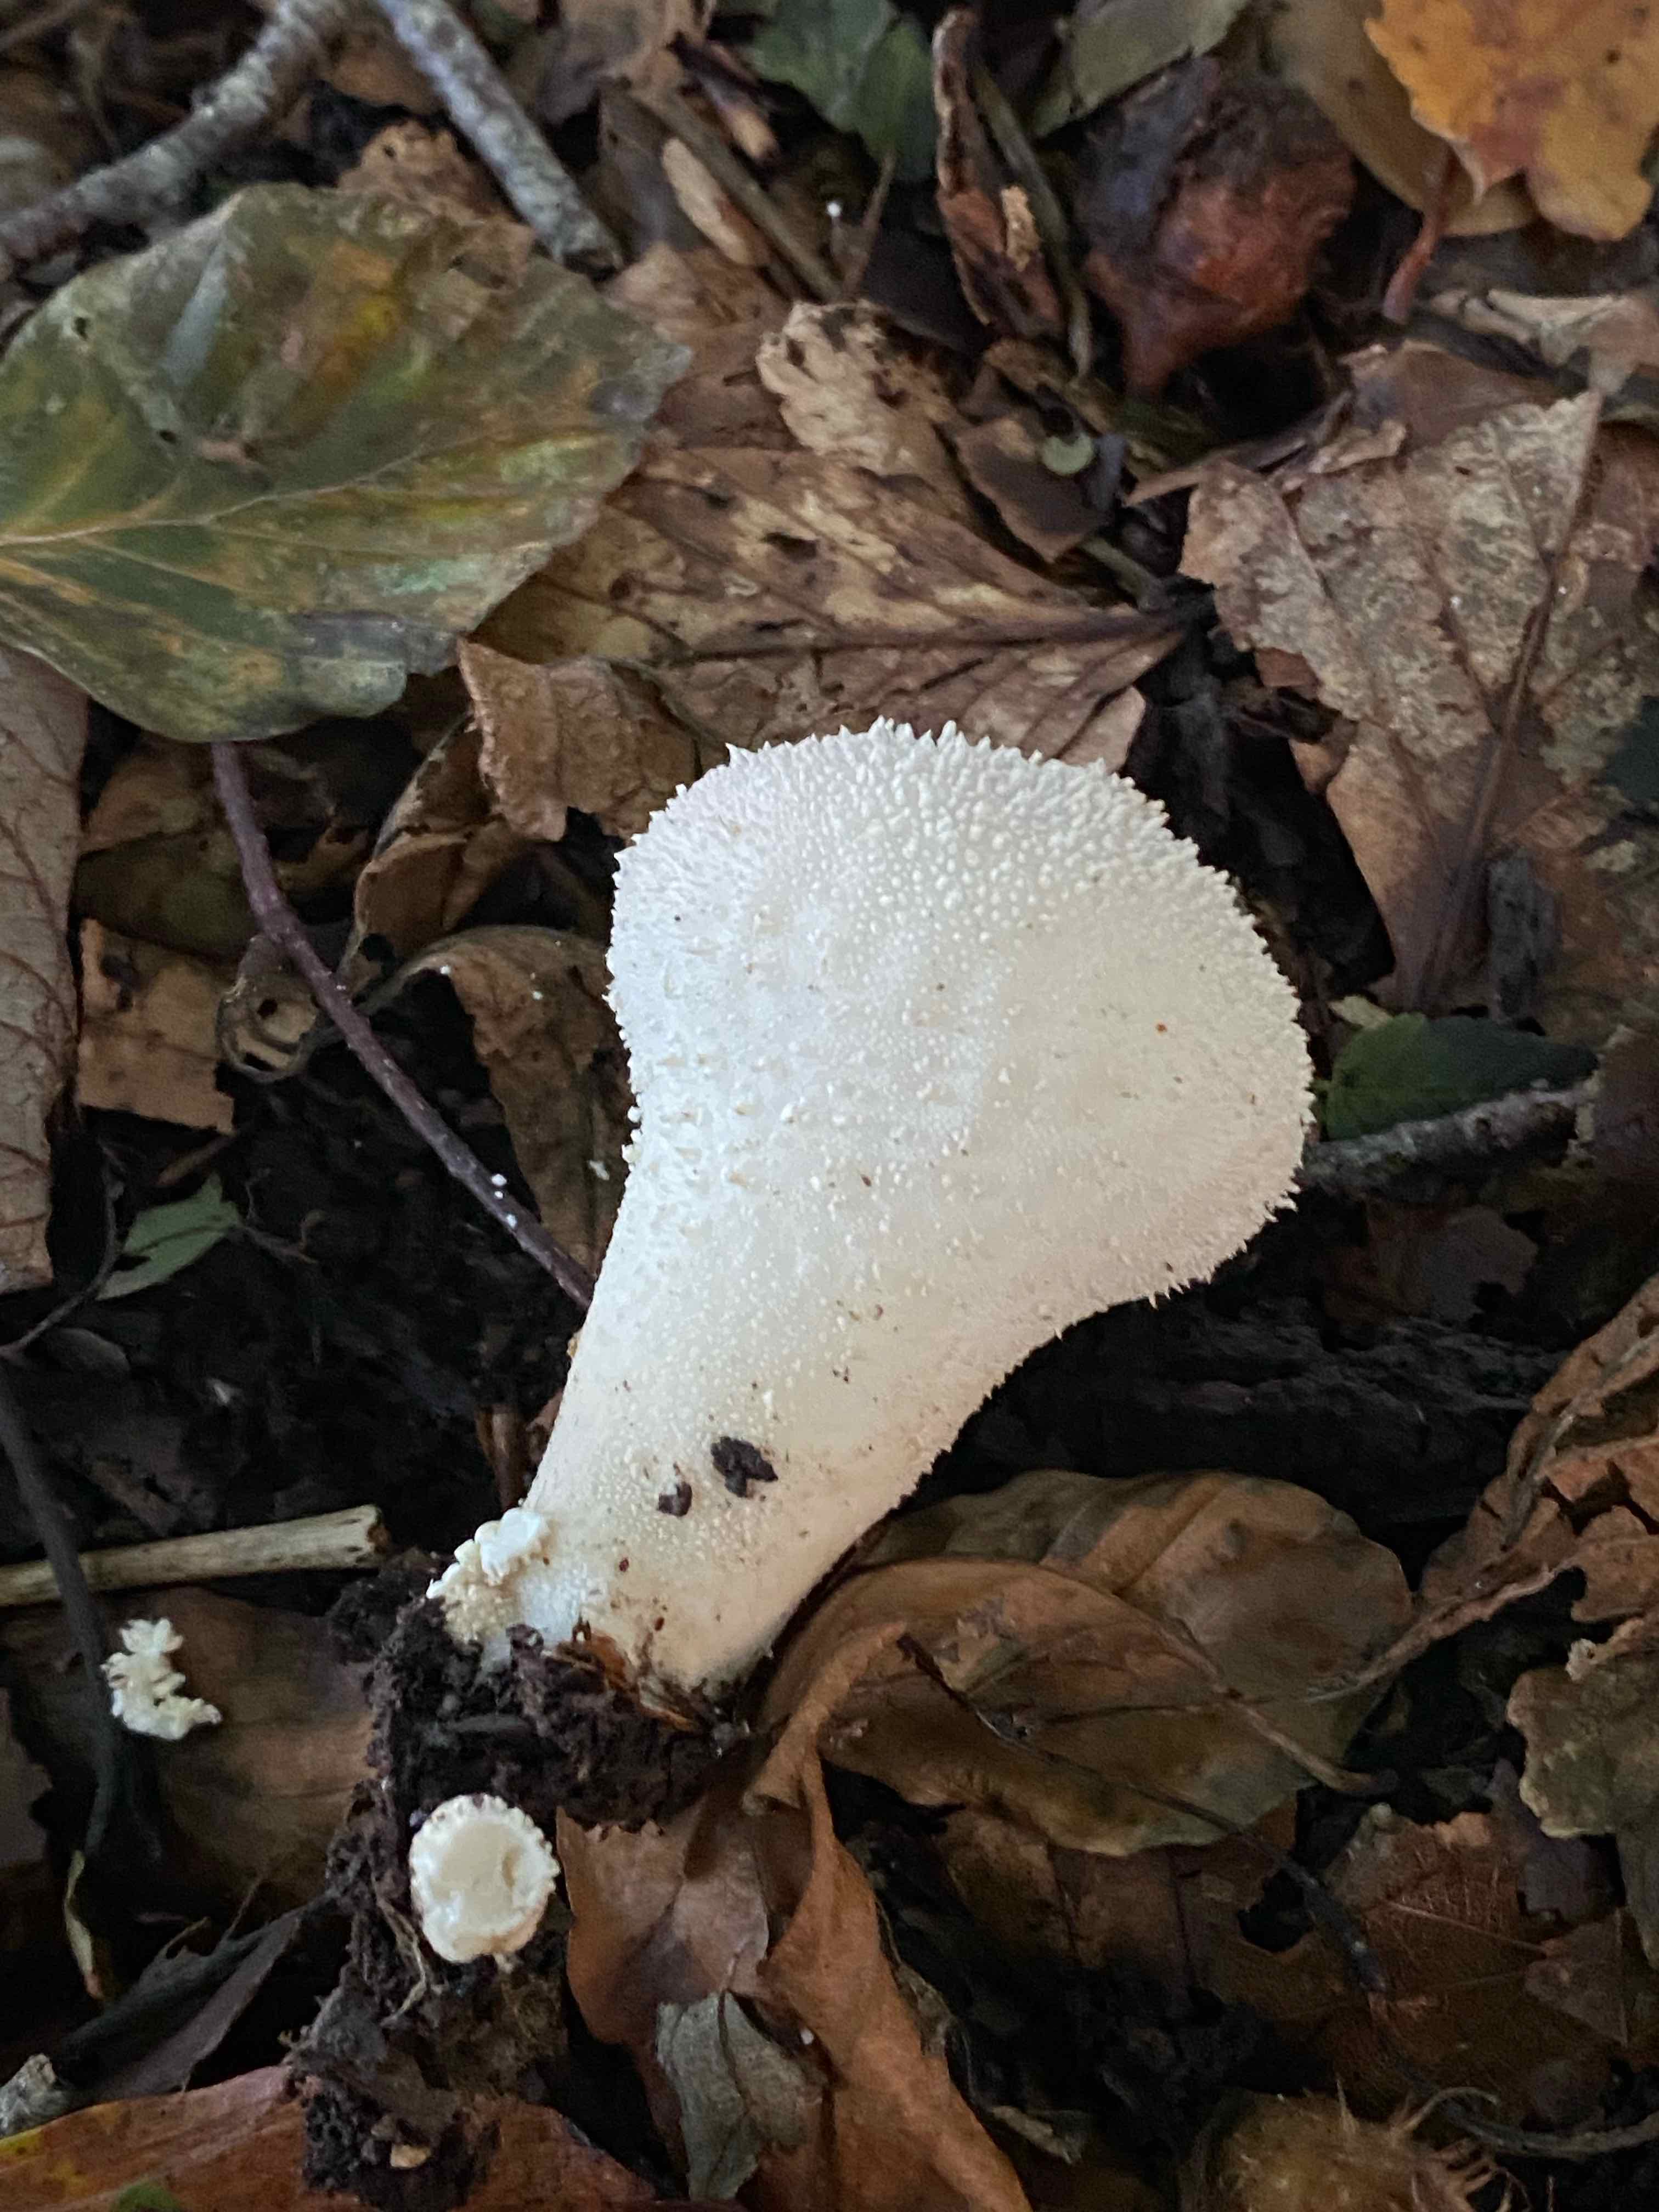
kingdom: Fungi
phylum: Basidiomycota
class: Agaricomycetes
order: Agaricales
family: Lycoperdaceae
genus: Lycoperdon
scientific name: Lycoperdon perlatum
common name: krystal-støvbold
